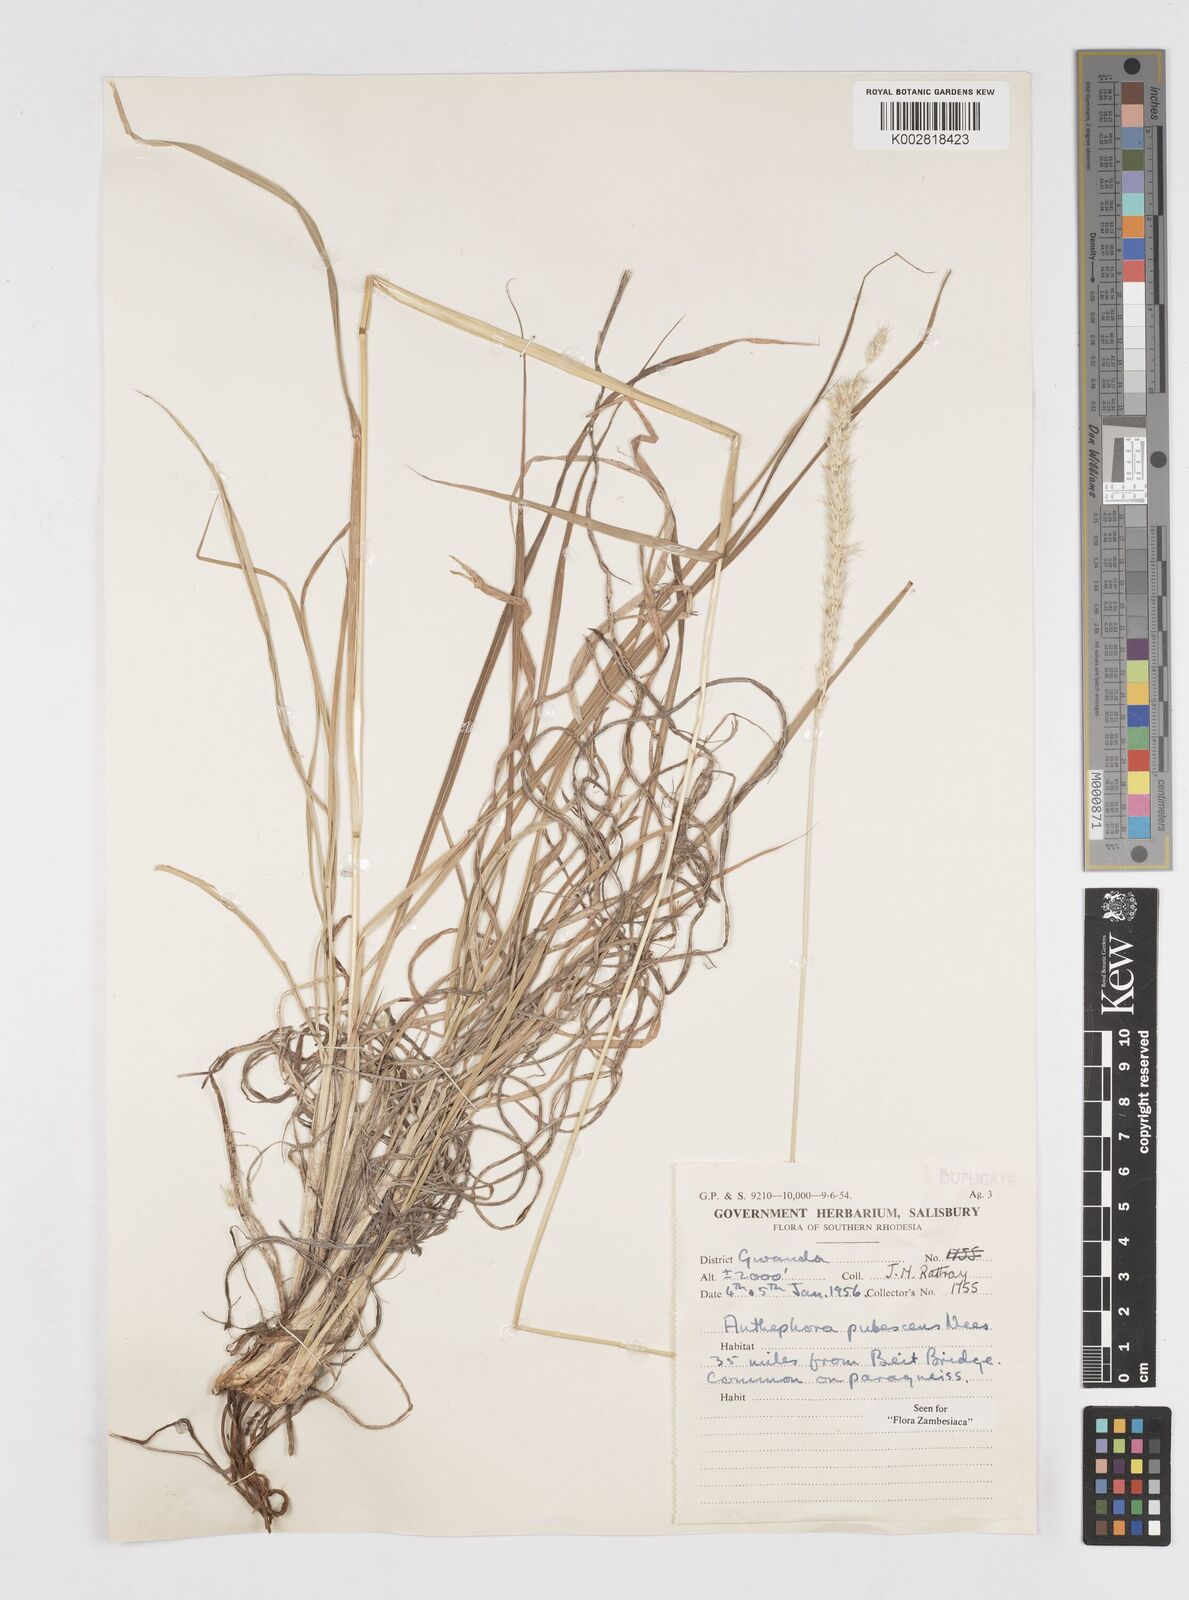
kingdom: Plantae
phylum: Tracheophyta
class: Liliopsida
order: Poales
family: Poaceae
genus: Anthephora
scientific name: Anthephora pubescens
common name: Wool grass
